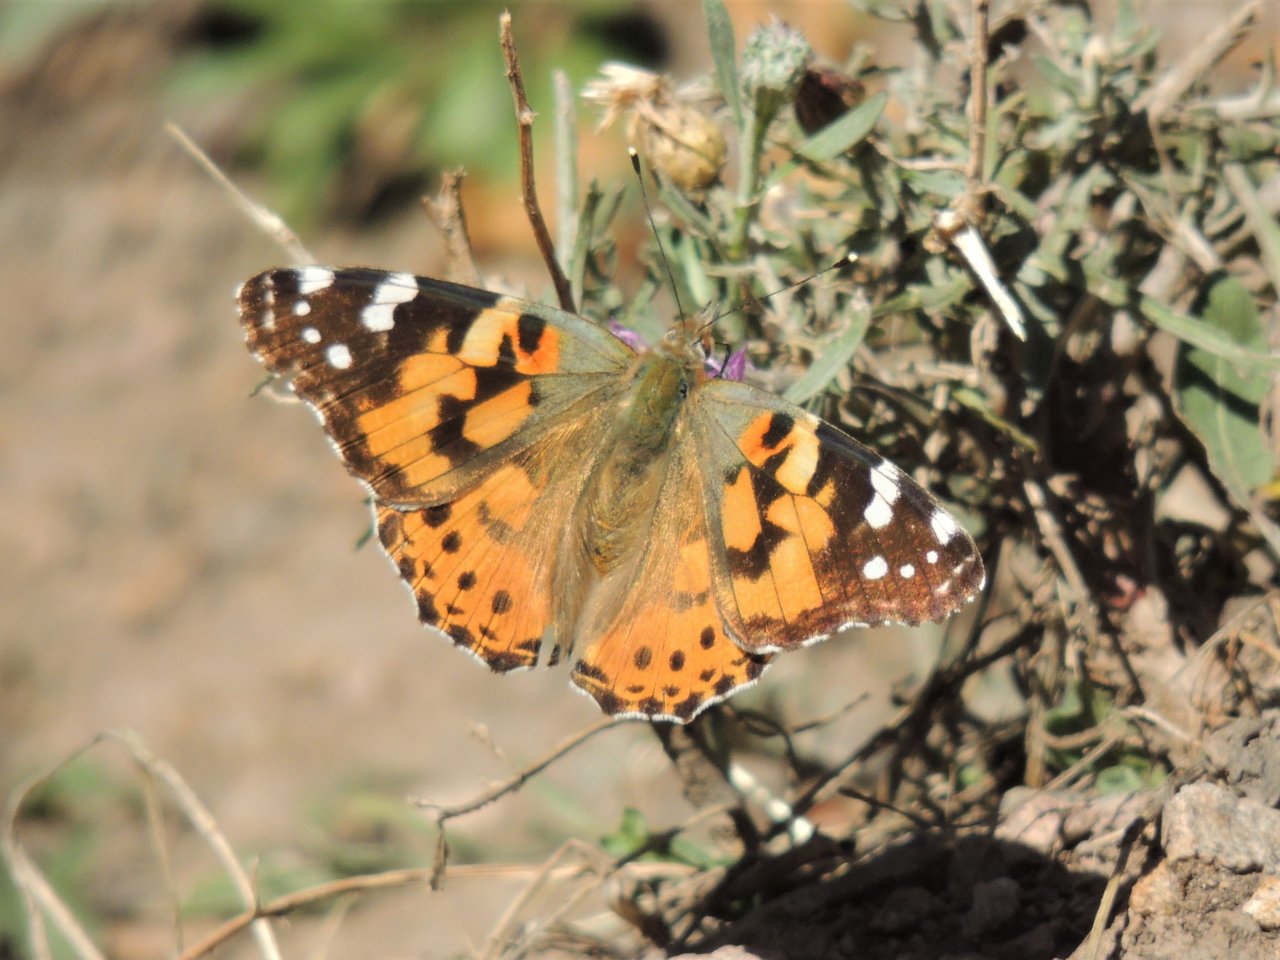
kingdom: Animalia
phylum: Arthropoda
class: Insecta
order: Lepidoptera
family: Nymphalidae
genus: Vanessa
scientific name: Vanessa cardui
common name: Painted Lady
